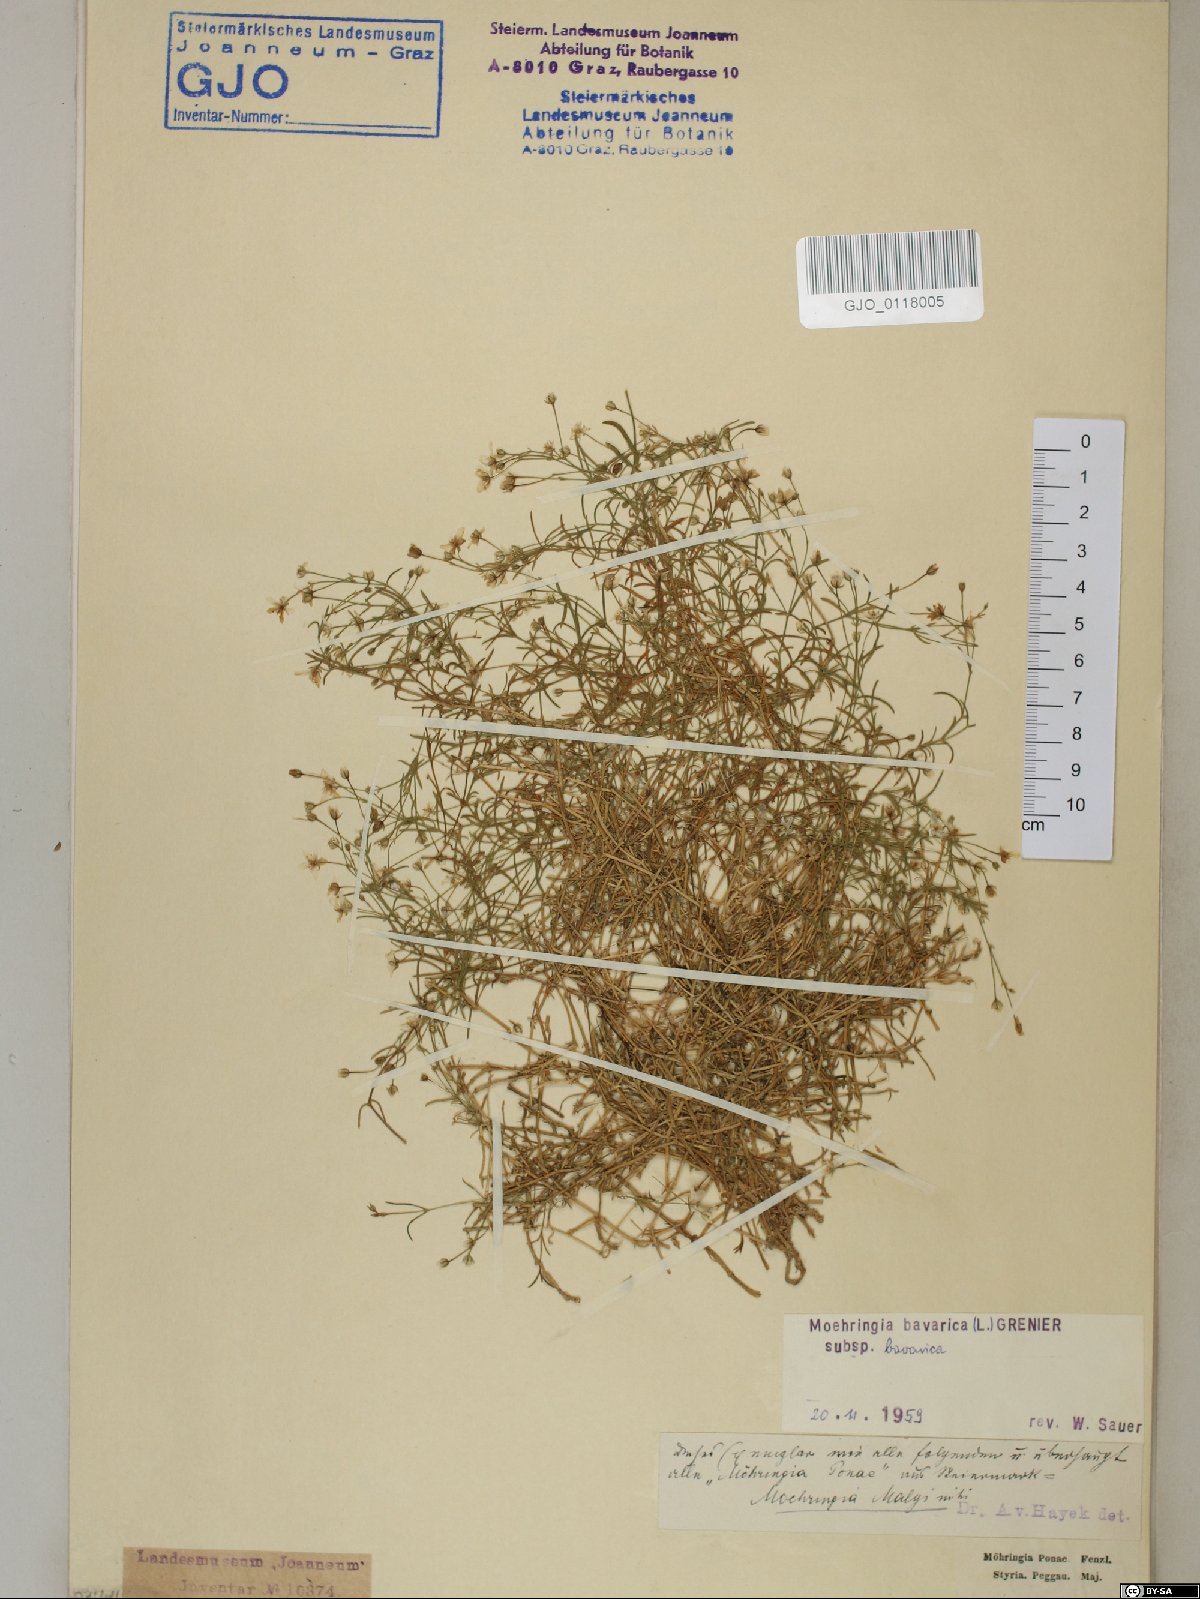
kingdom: Plantae
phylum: Tracheophyta
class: Magnoliopsida
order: Caryophyllales
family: Caryophyllaceae
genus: Moehringia
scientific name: Moehringia bavarica
